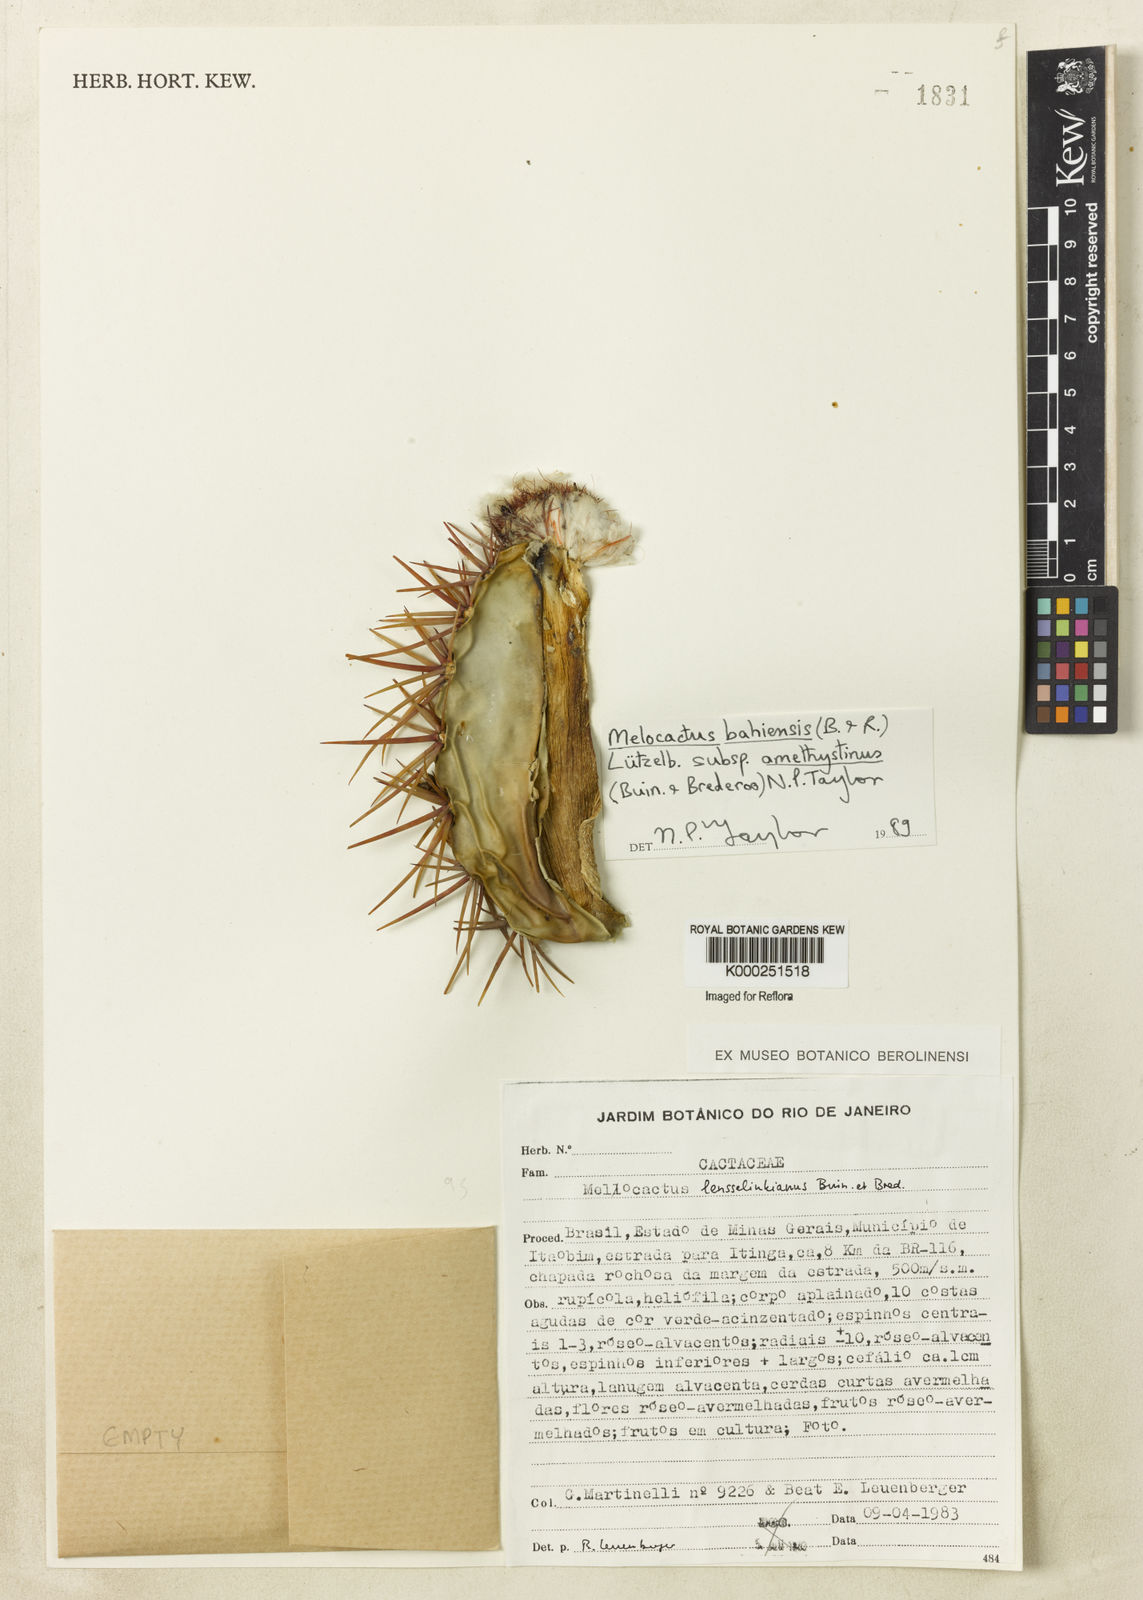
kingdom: Plantae
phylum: Tracheophyta
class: Magnoliopsida
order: Caryophyllales
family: Cactaceae
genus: Melocactus
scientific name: Melocactus bahiensis
